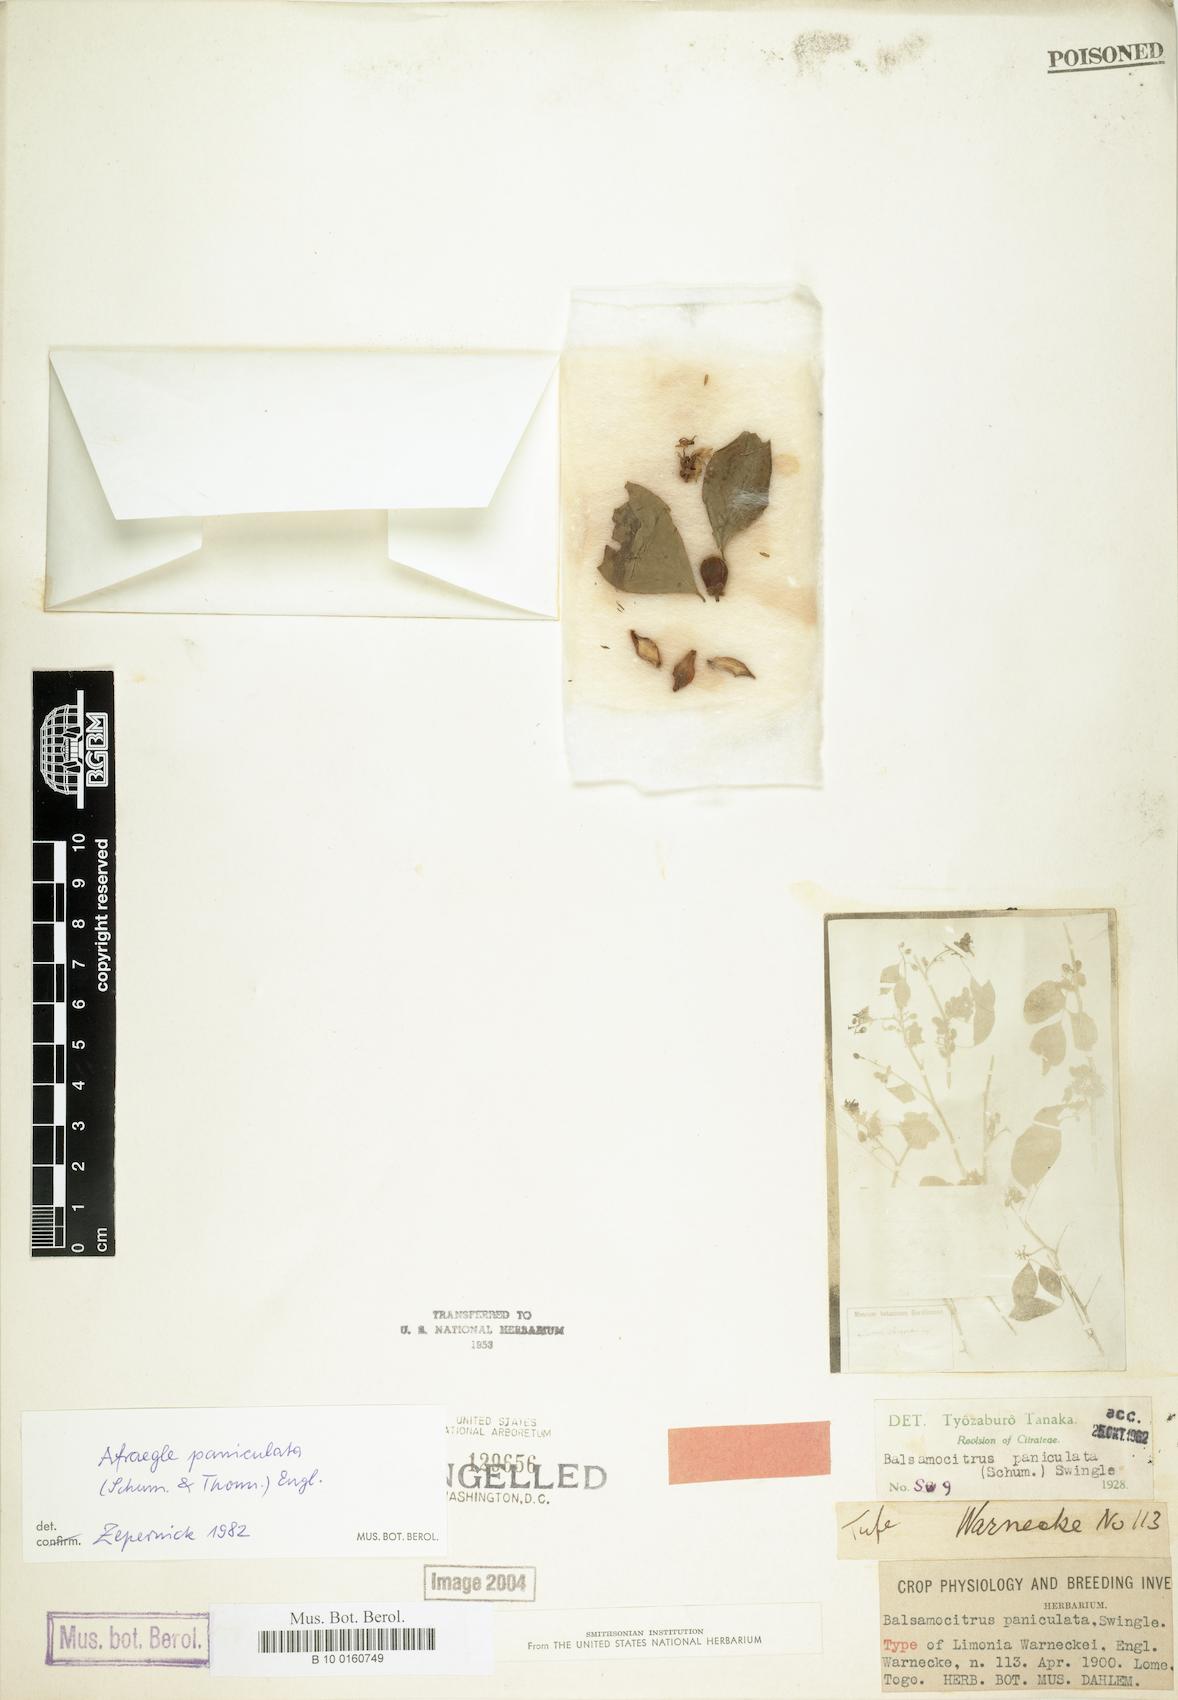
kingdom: Plantae
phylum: Tracheophyta
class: Magnoliopsida
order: Sapindales
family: Rutaceae
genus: Afraegle
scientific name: Afraegle paniculata
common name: Guin-guin
